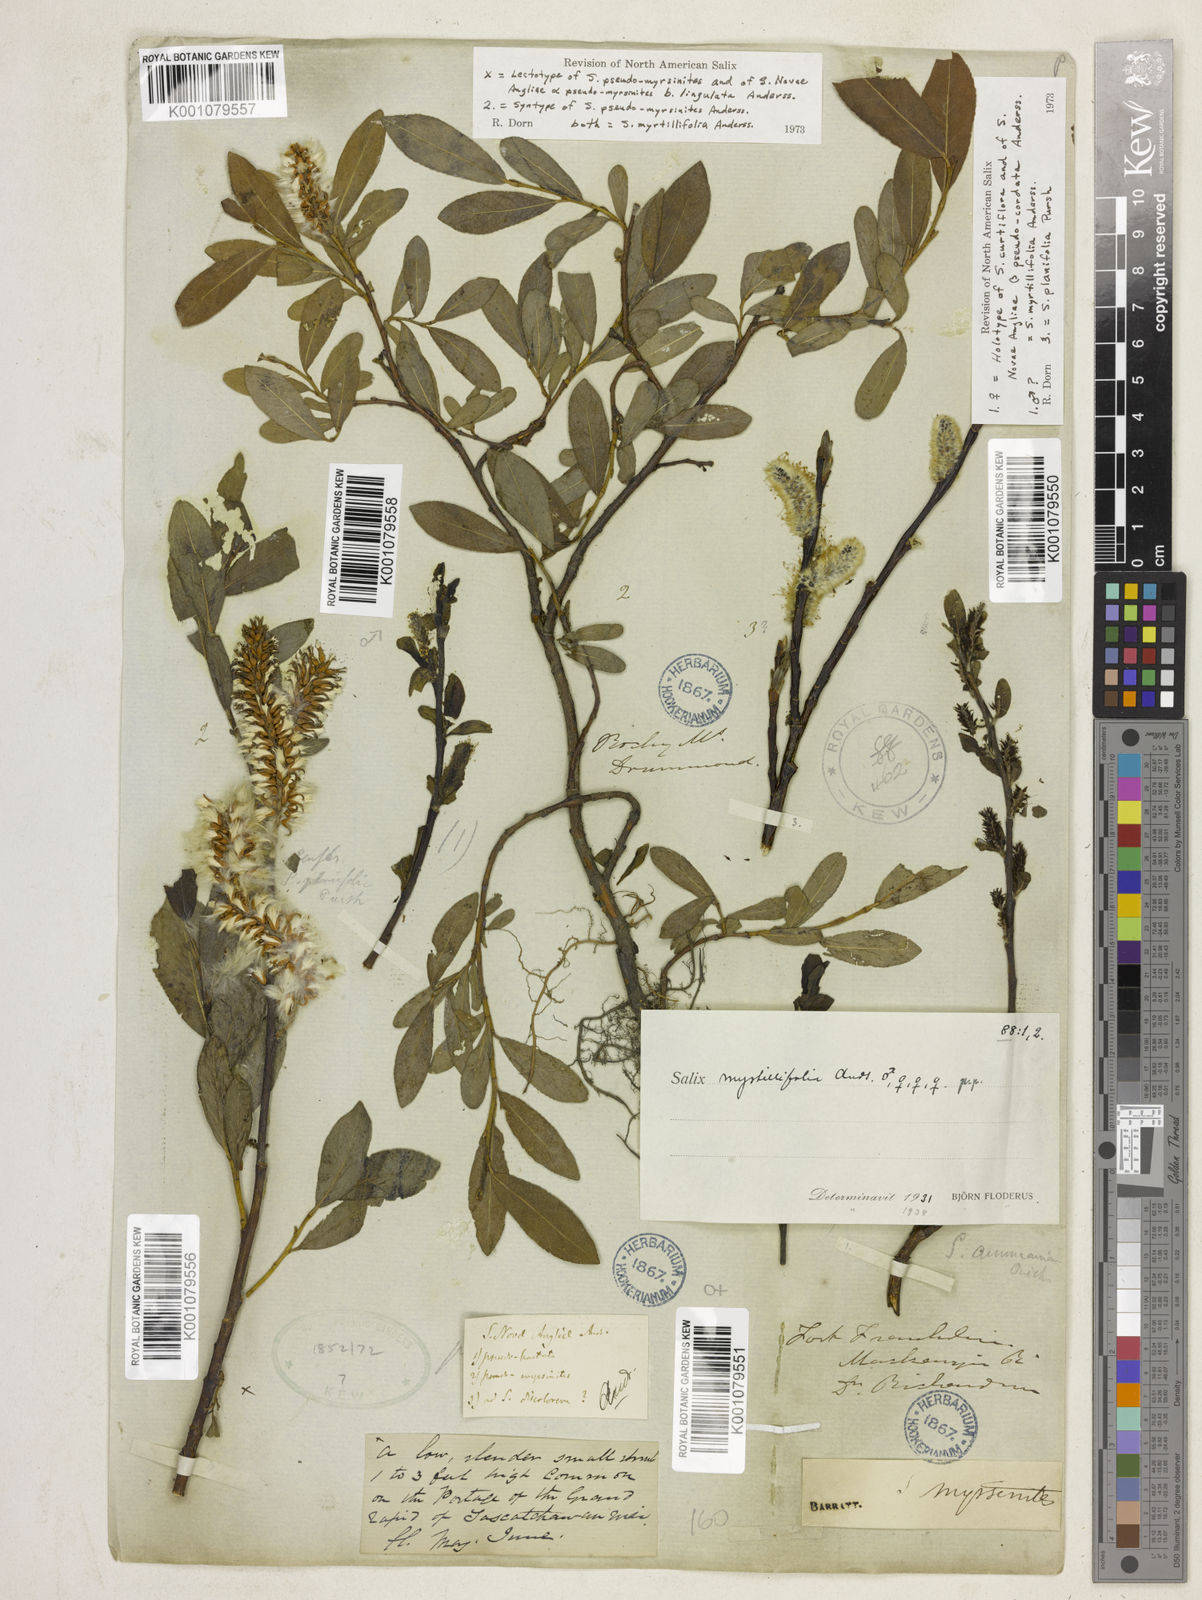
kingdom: Plantae
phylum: Tracheophyta
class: Magnoliopsida
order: Malpighiales
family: Salicaceae
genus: Salix
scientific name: Salix myrtillifolia
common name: Bilberry willow
